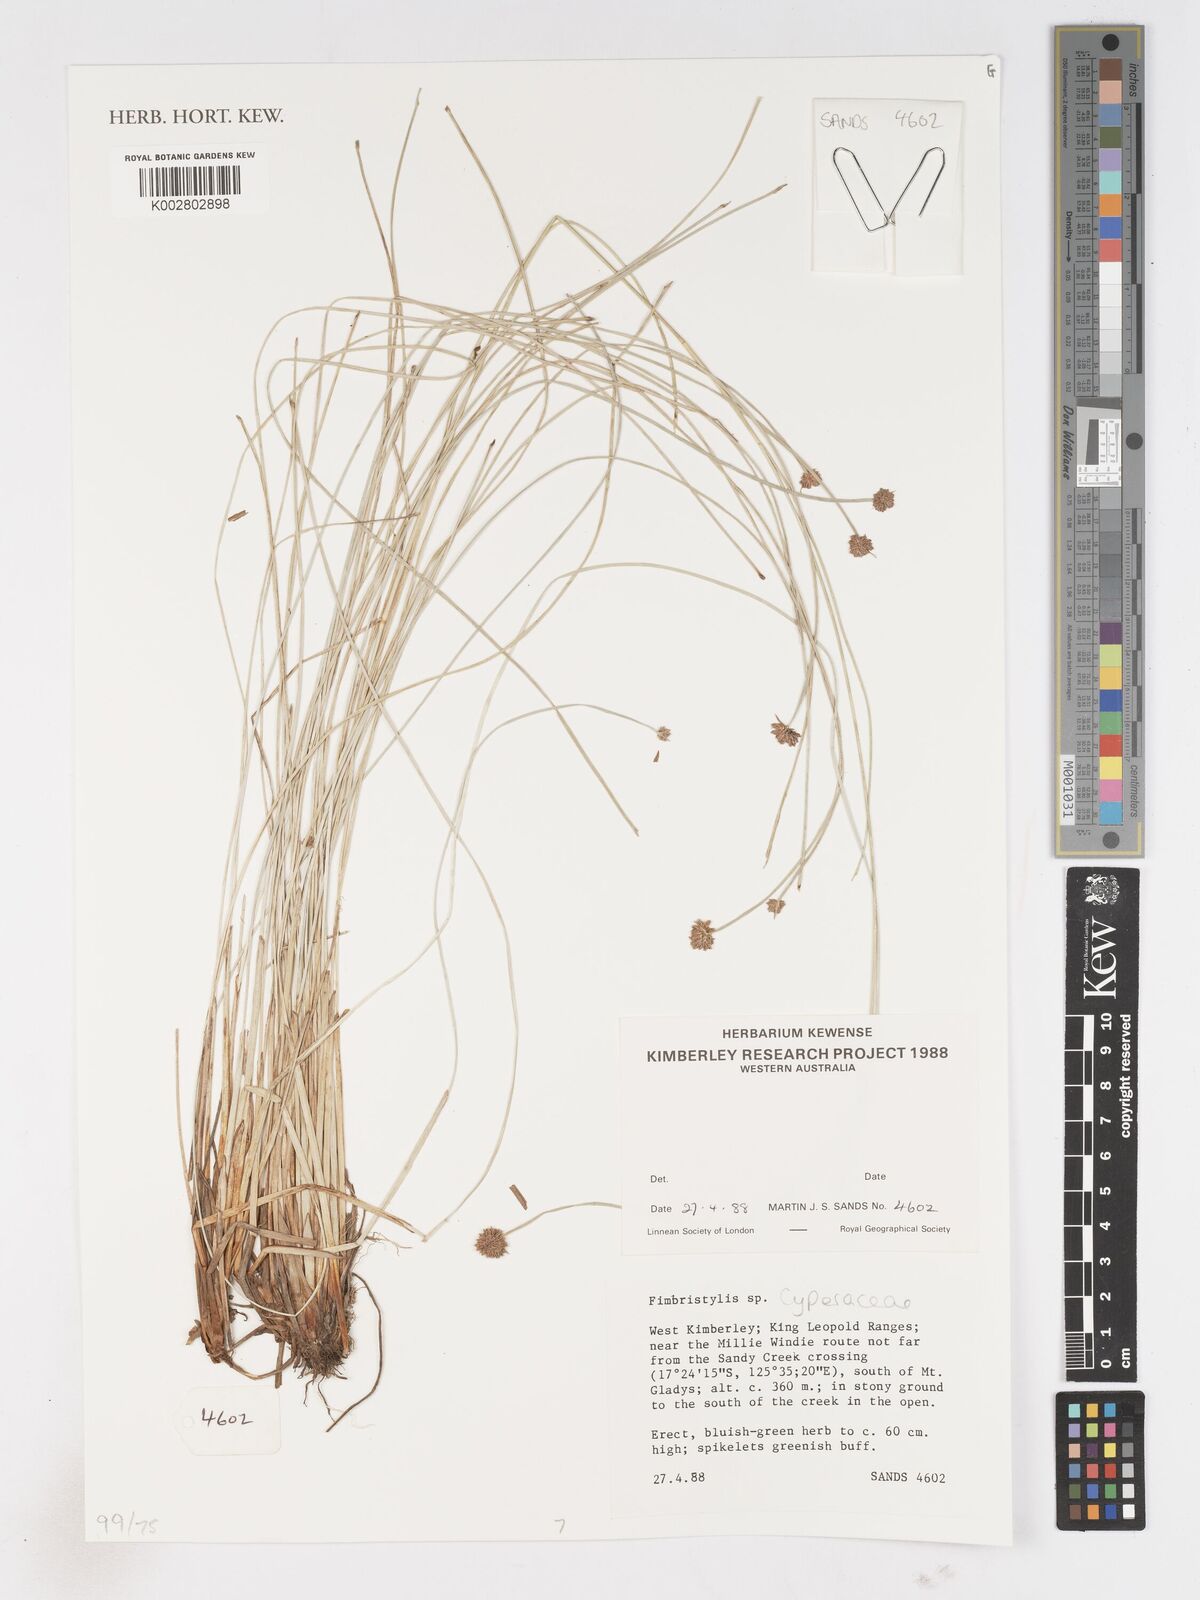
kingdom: Plantae
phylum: Tracheophyta
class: Liliopsida
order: Poales
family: Cyperaceae
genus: Fimbristylis
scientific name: Fimbristylis
